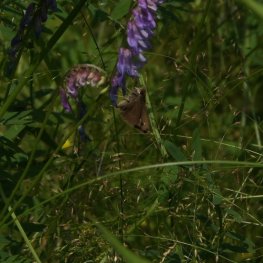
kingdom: Animalia
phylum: Arthropoda
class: Insecta
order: Lepidoptera
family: Hesperiidae
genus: Euphyes
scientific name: Euphyes vestris
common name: Dun Skipper
